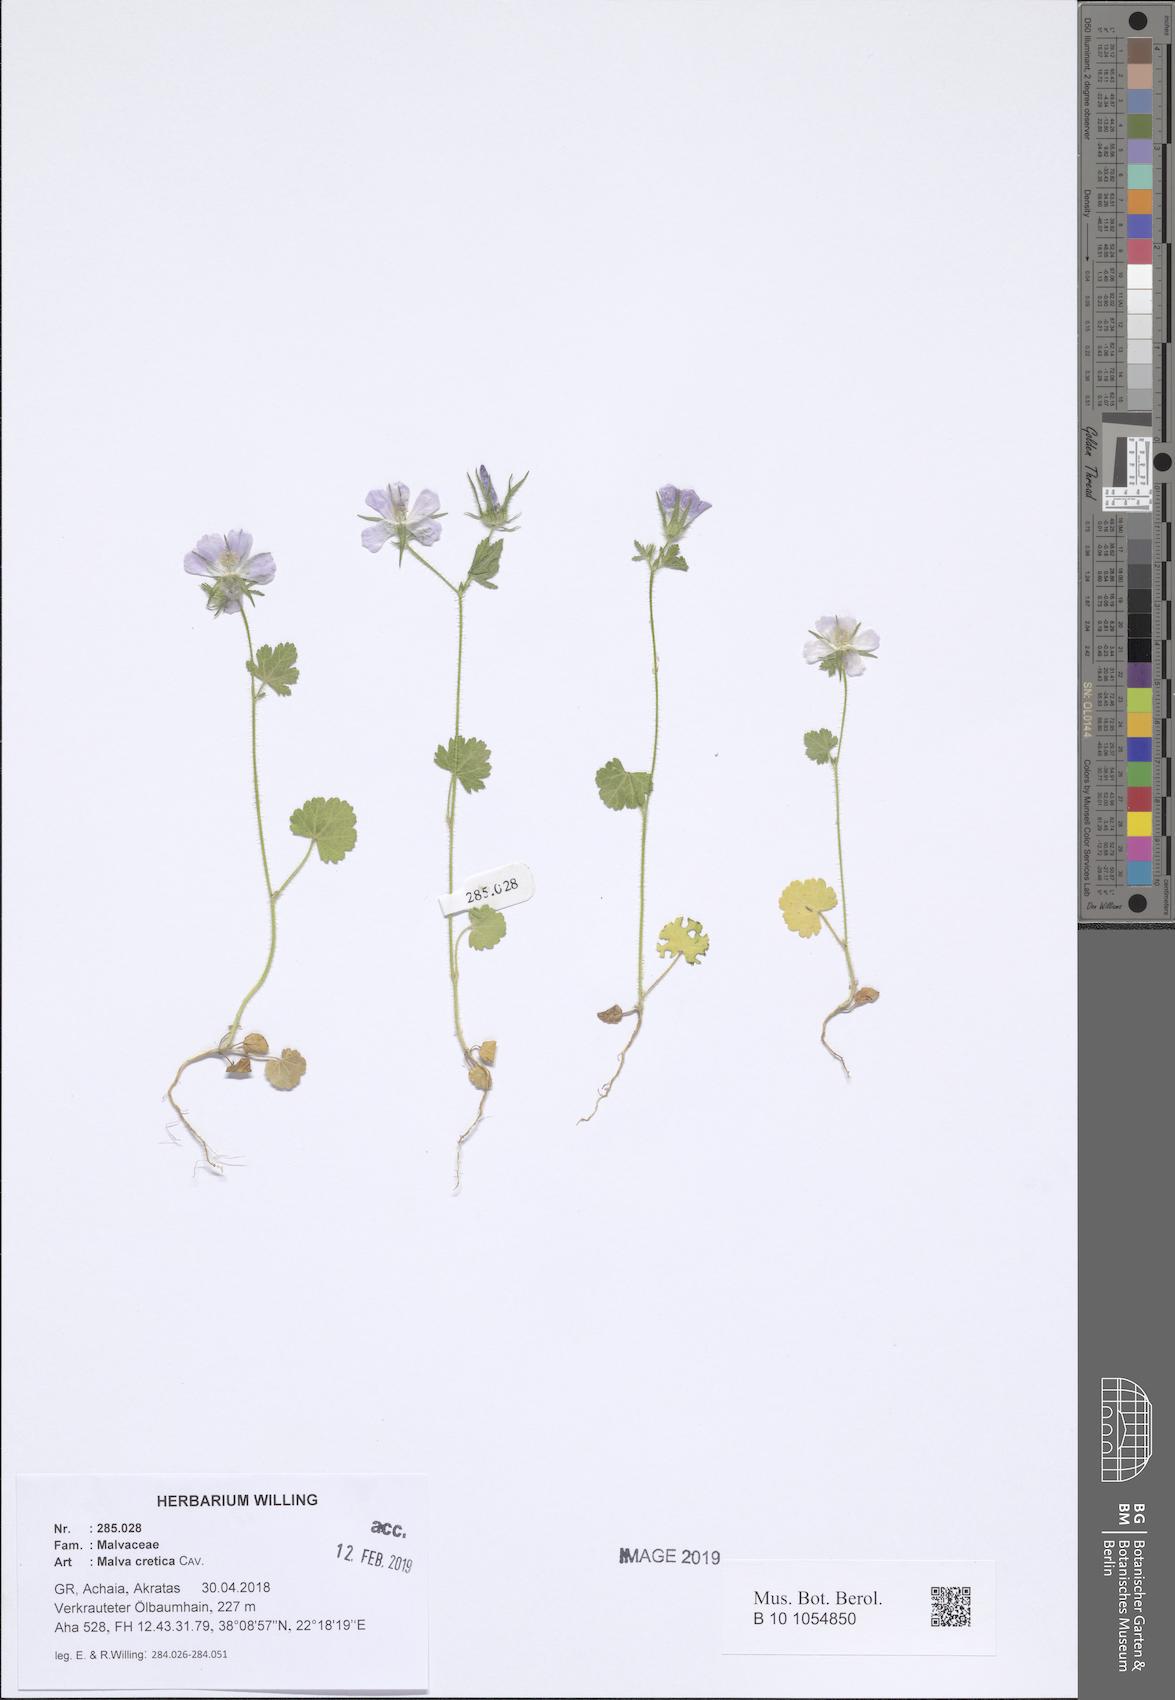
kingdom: Plantae
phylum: Tracheophyta
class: Magnoliopsida
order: Malvales
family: Malvaceae
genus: Malva
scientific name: Malva cretica
